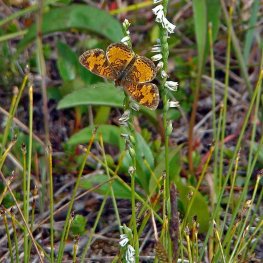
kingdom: Animalia
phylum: Arthropoda
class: Insecta
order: Lepidoptera
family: Nymphalidae
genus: Phyciodes
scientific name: Phyciodes tharos
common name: Northern Crescent
